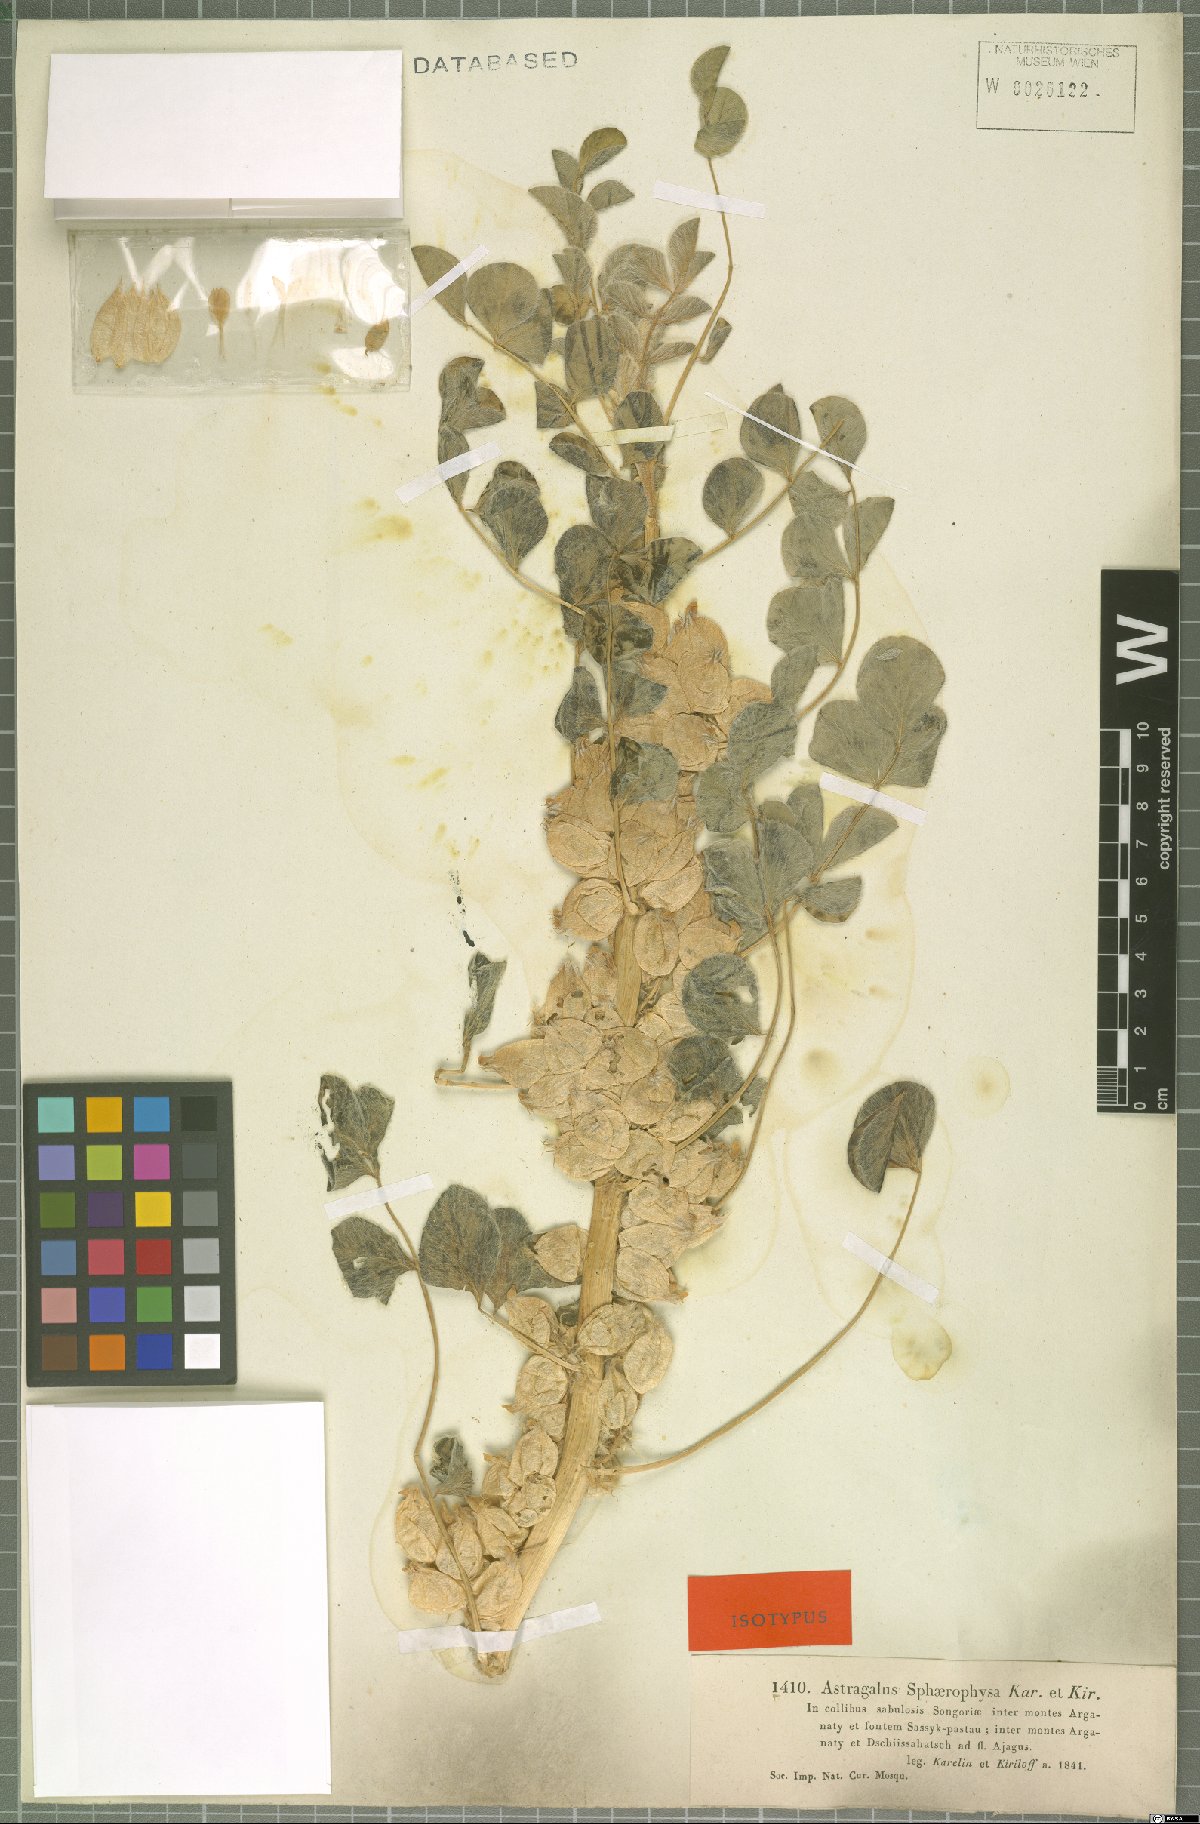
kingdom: Plantae
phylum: Tracheophyta
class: Magnoliopsida
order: Fabales
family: Fabaceae
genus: Astragalus
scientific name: Astragalus sphaerophysa
